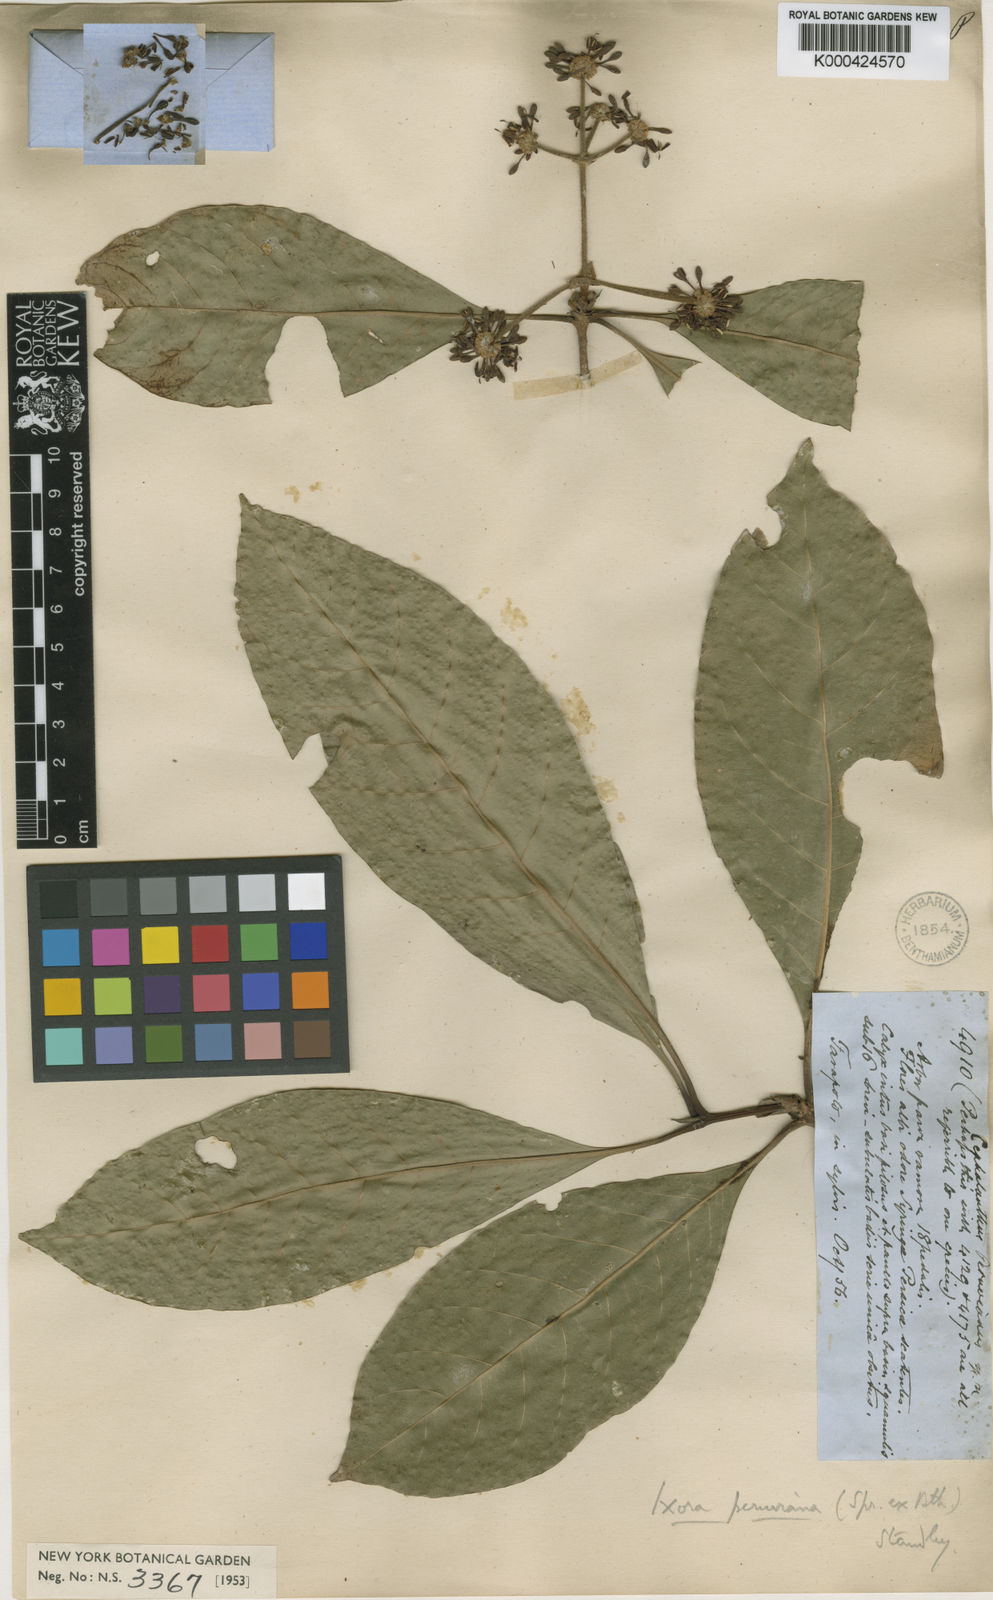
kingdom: Plantae
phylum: Tracheophyta
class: Magnoliopsida
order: Gentianales
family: Rubiaceae
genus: Ixora
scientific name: Ixora peruviana
